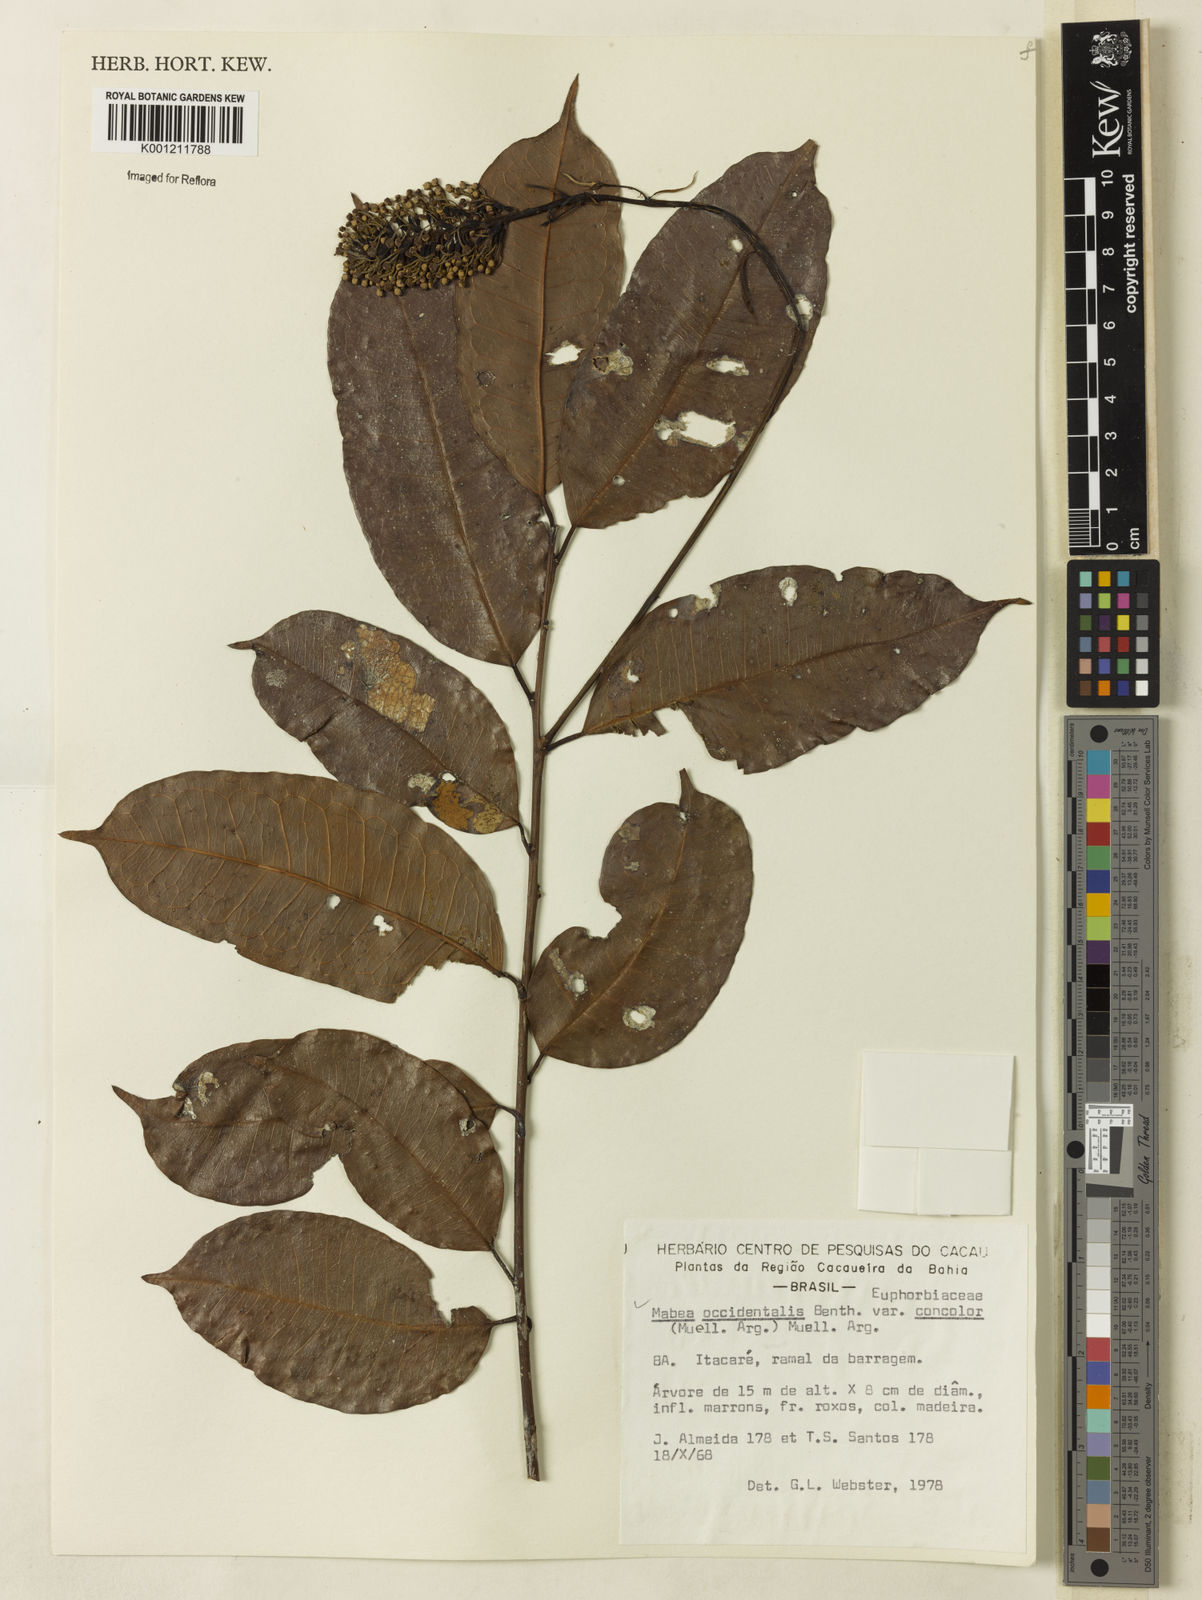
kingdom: Plantae
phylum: Tracheophyta
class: Magnoliopsida
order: Malpighiales
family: Euphorbiaceae
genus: Mabea
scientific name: Mabea occidentalis
